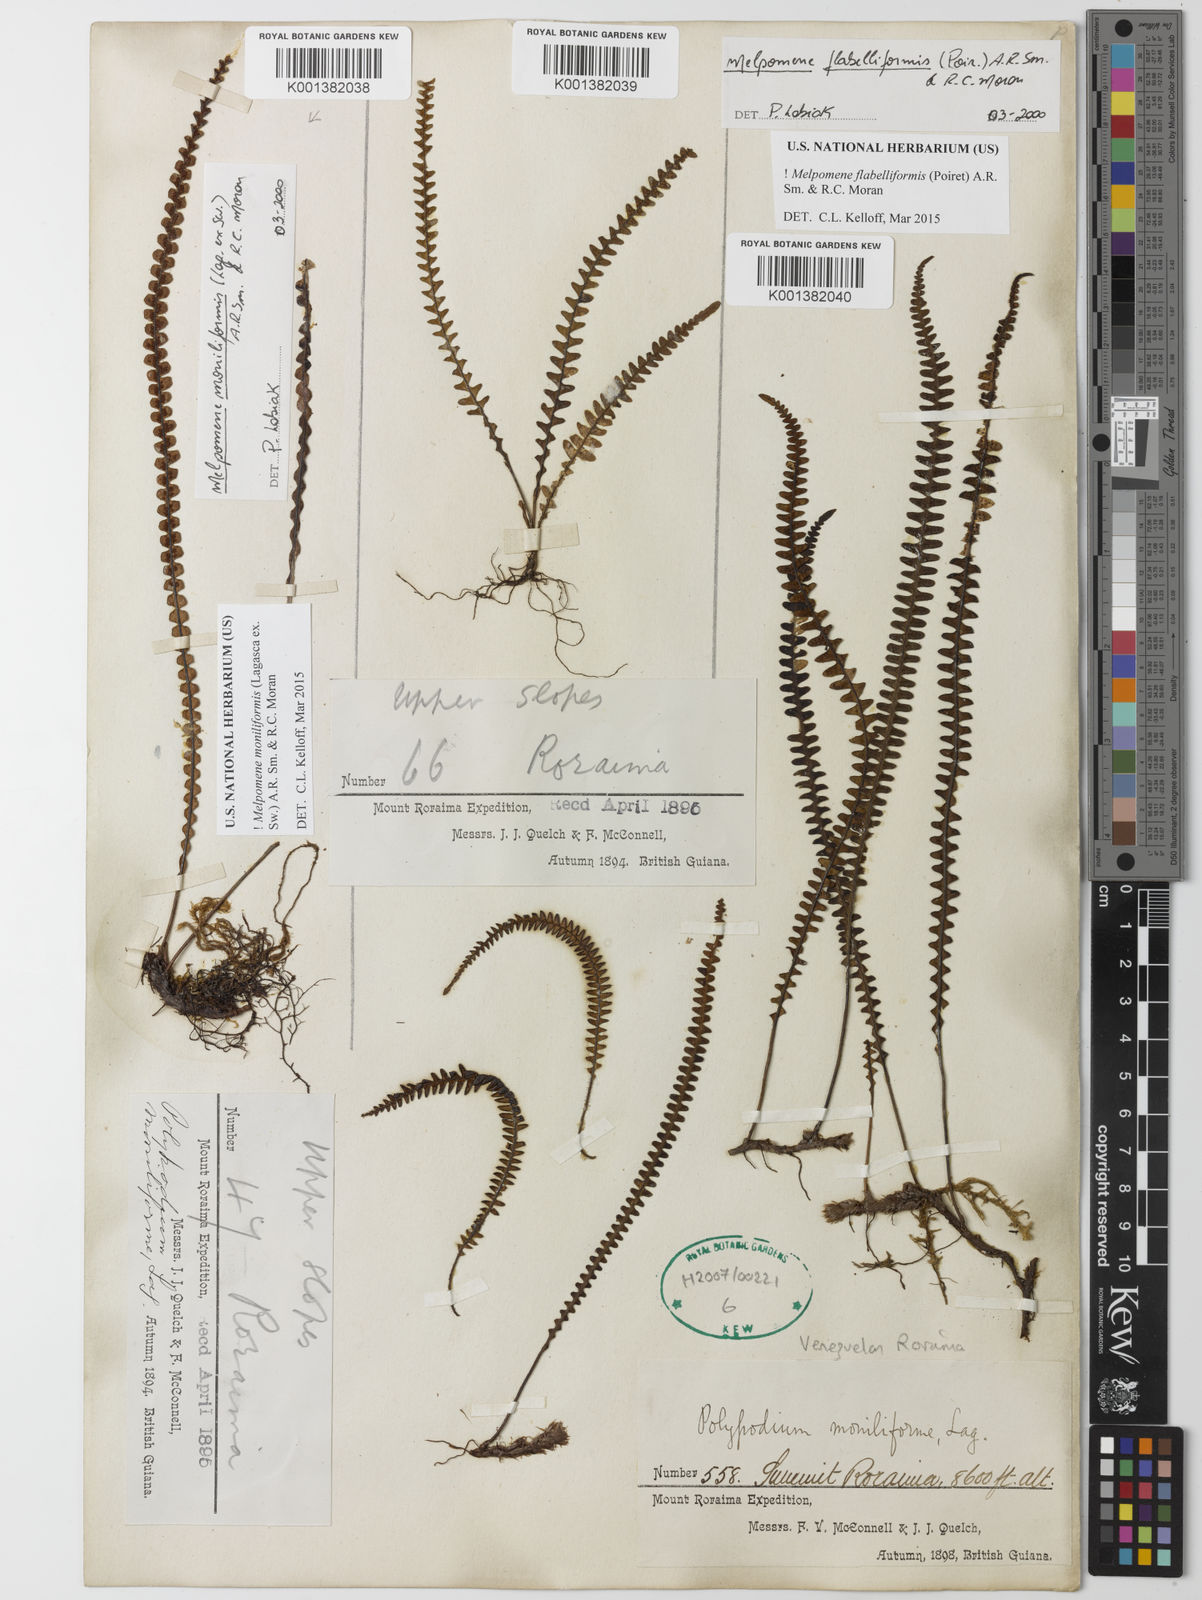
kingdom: Plantae
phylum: Tracheophyta
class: Polypodiopsida
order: Polypodiales
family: Polypodiaceae
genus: Melpomene
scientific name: Melpomene flabelliformis
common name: Fanleaf dwarf polypody
